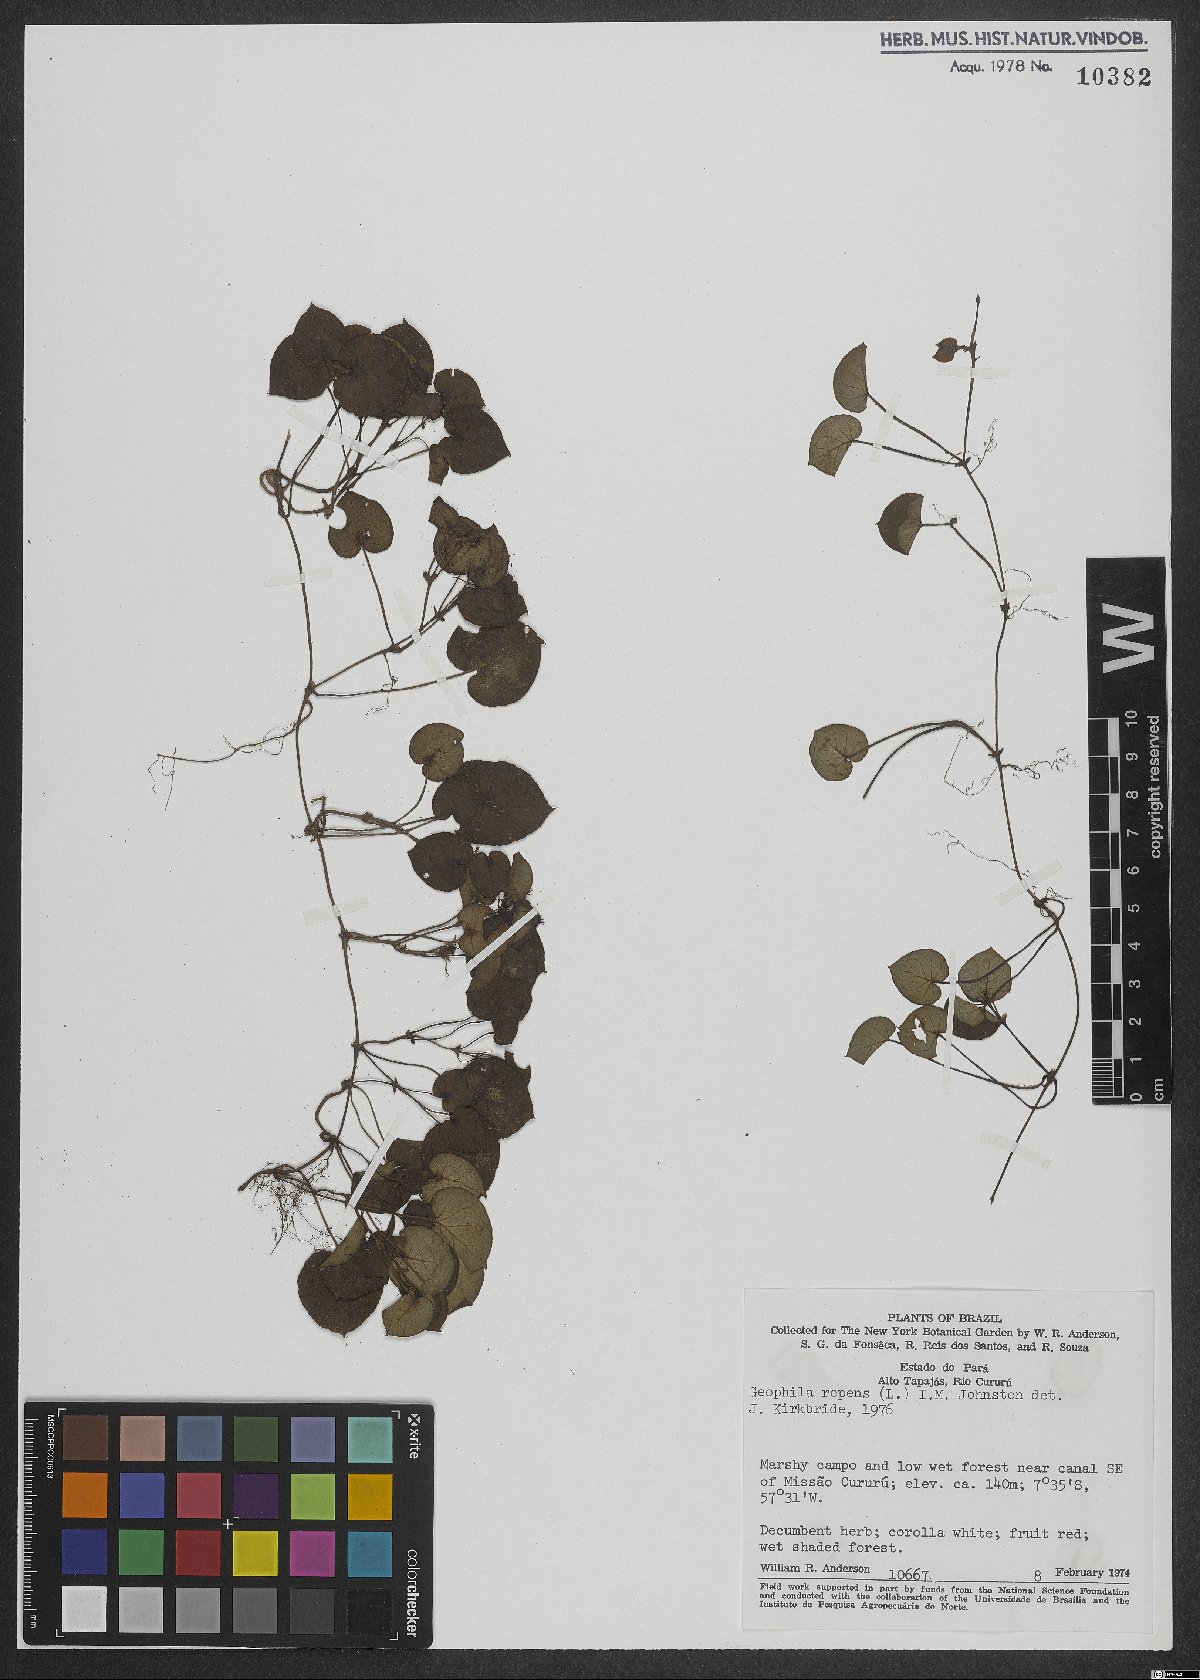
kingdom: Plantae
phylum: Tracheophyta
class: Magnoliopsida
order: Gentianales
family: Rubiaceae
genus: Geophila
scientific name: Geophila repens
